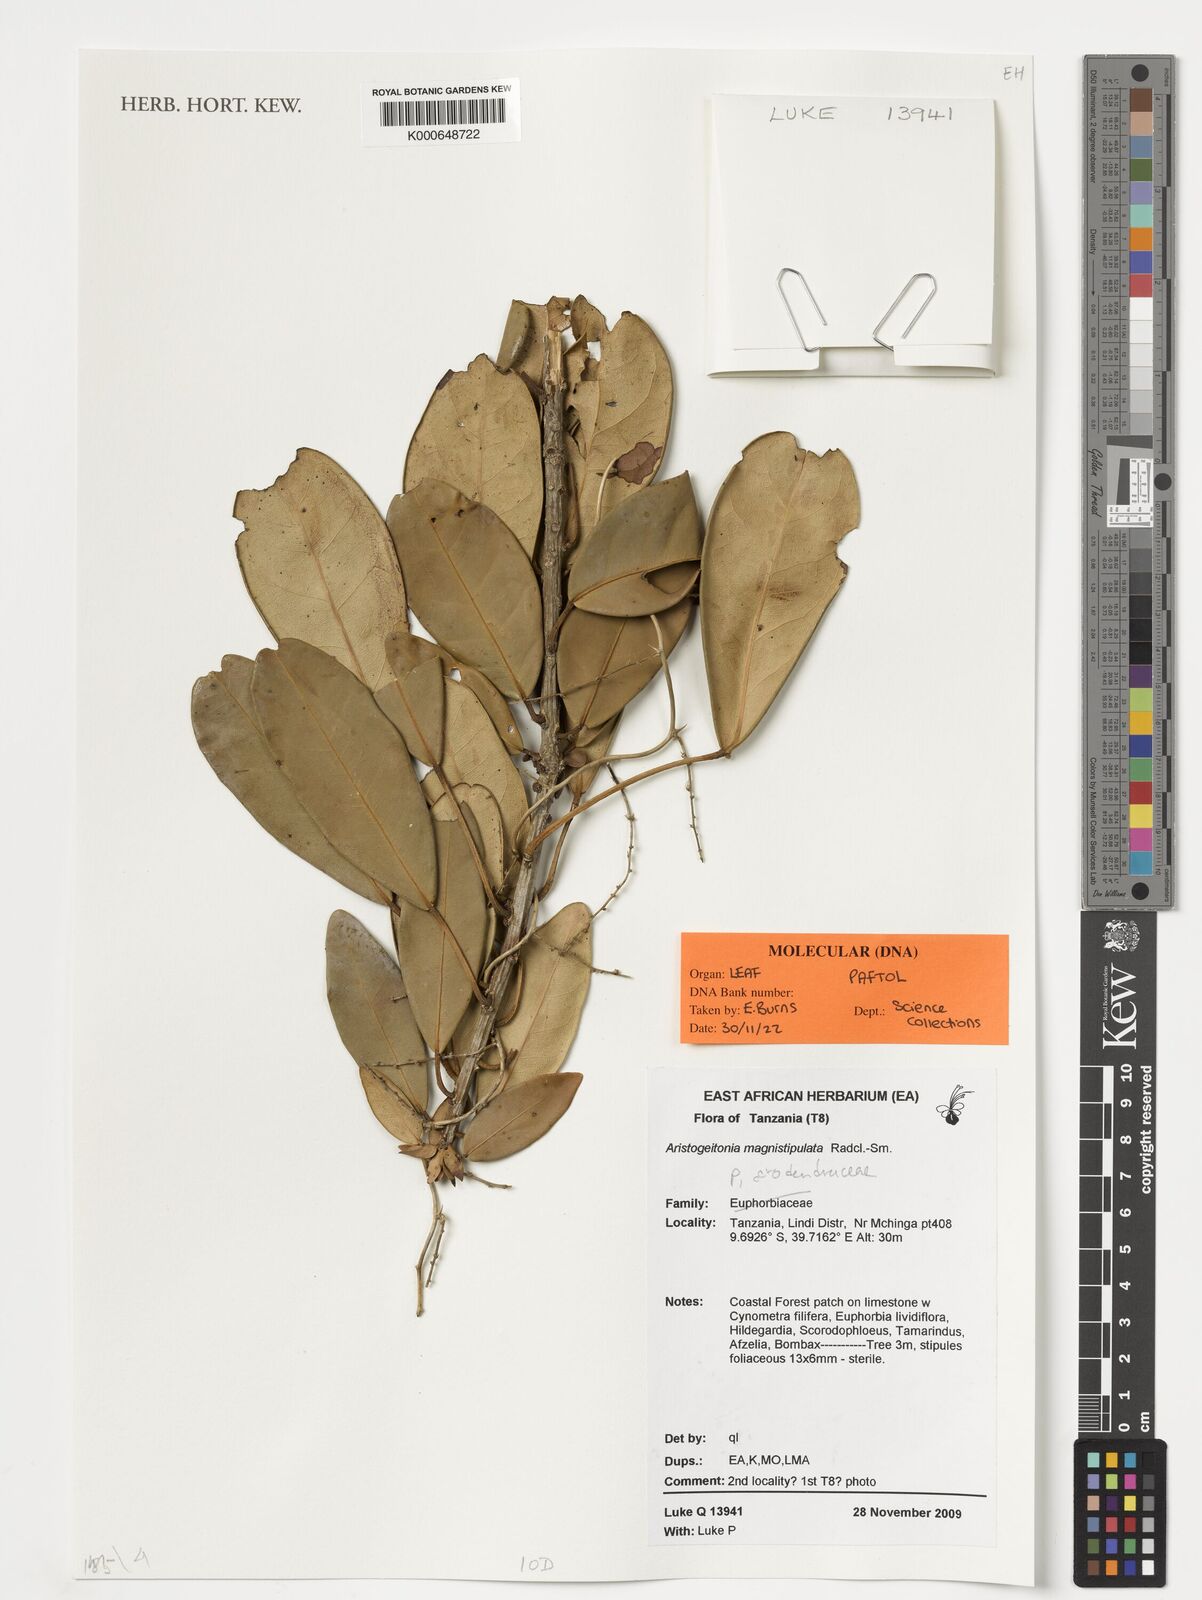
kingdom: Plantae
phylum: Tracheophyta
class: Magnoliopsida
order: Malpighiales
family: Picrodendraceae
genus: Aristogeitonia
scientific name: Aristogeitonia magnistipula
